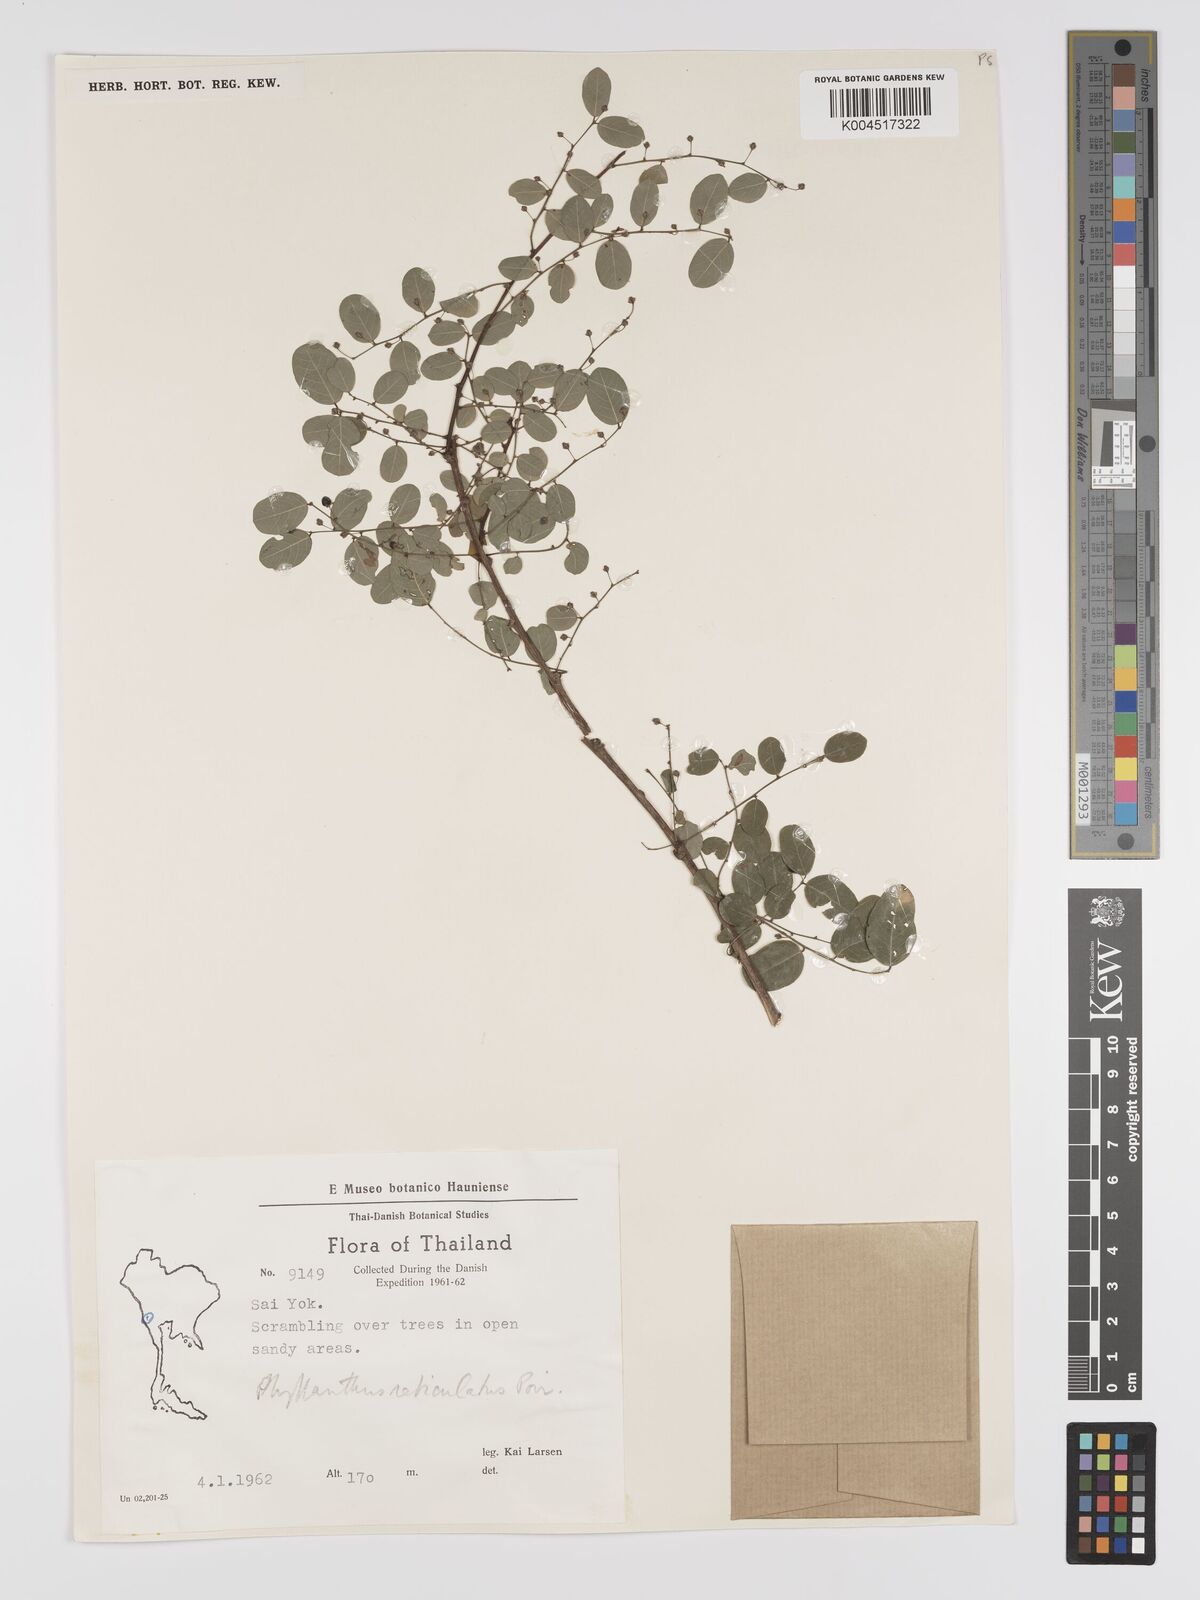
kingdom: Plantae
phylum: Tracheophyta
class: Magnoliopsida
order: Malpighiales
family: Phyllanthaceae
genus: Phyllanthus
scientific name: Phyllanthus reticulatus
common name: Potato bush
